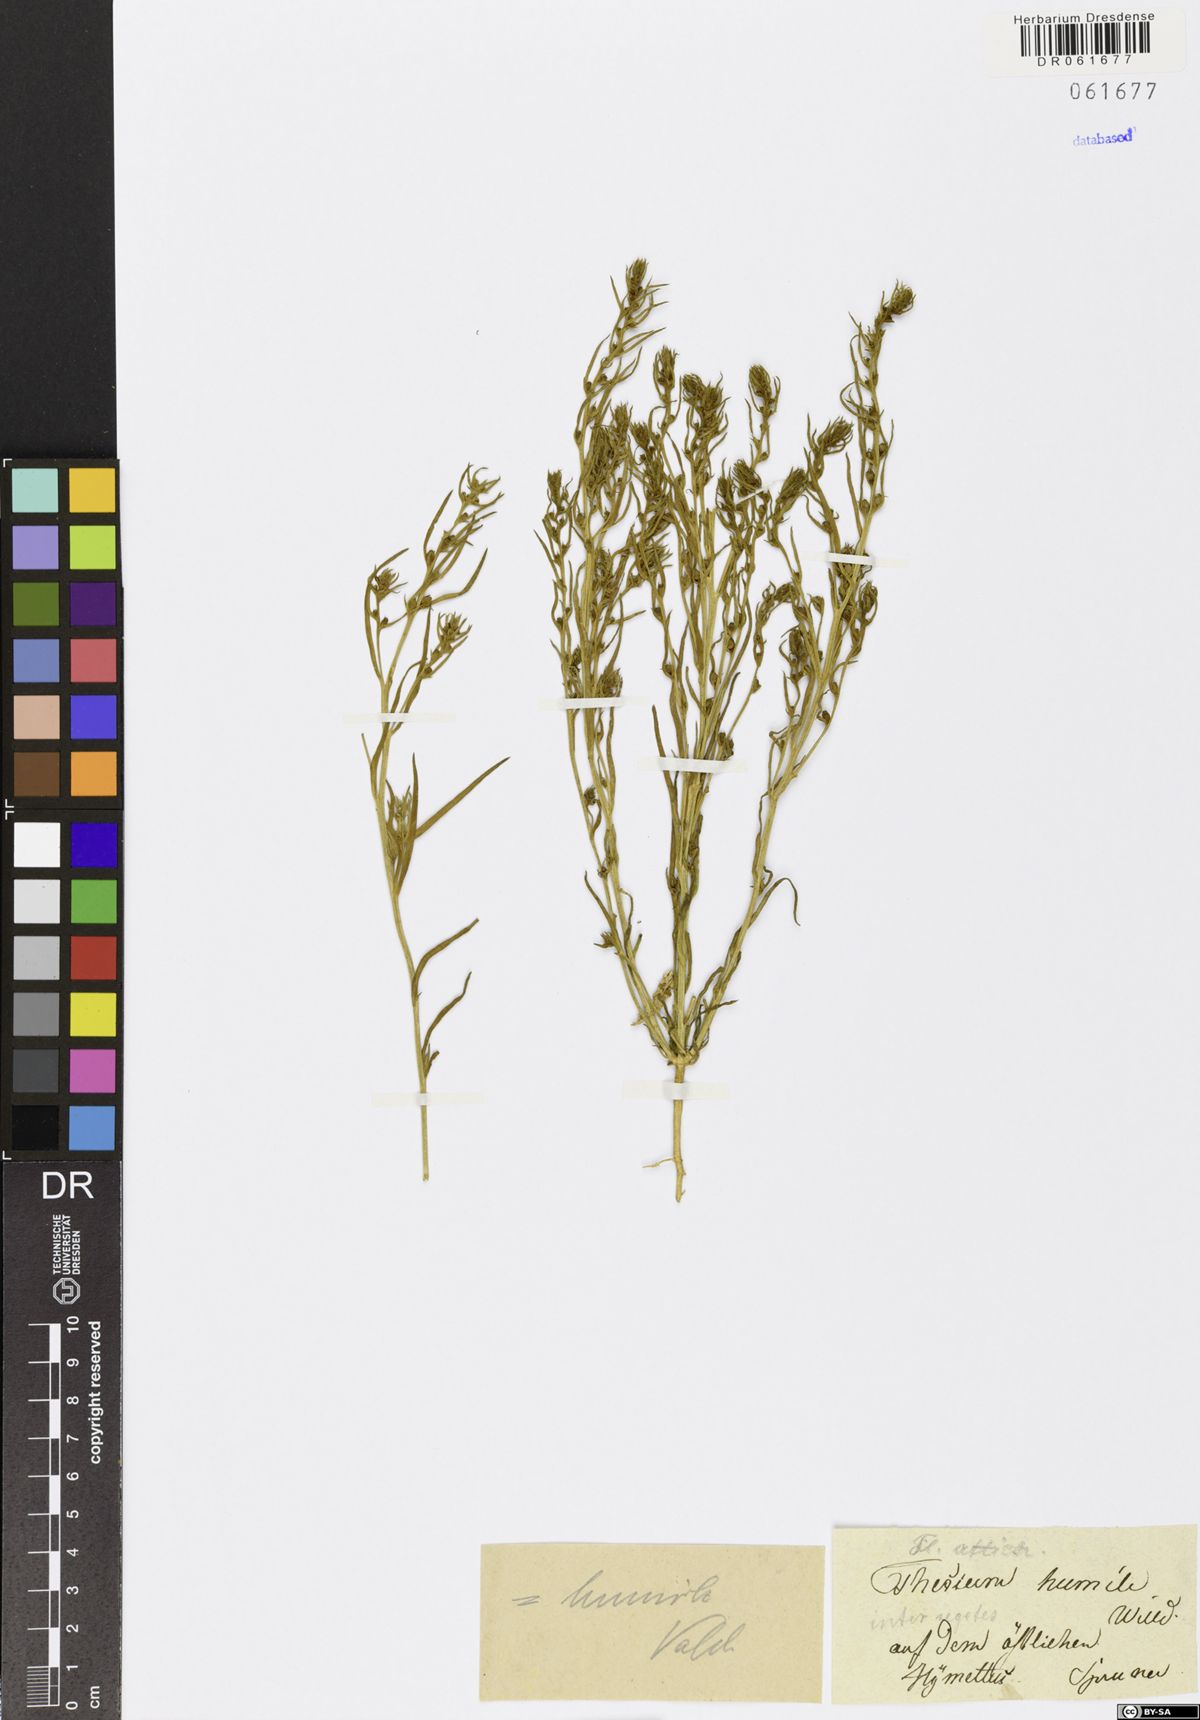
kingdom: Plantae
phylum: Tracheophyta
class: Magnoliopsida
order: Santalales
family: Thesiaceae
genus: Thesium
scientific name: Thesium humile
